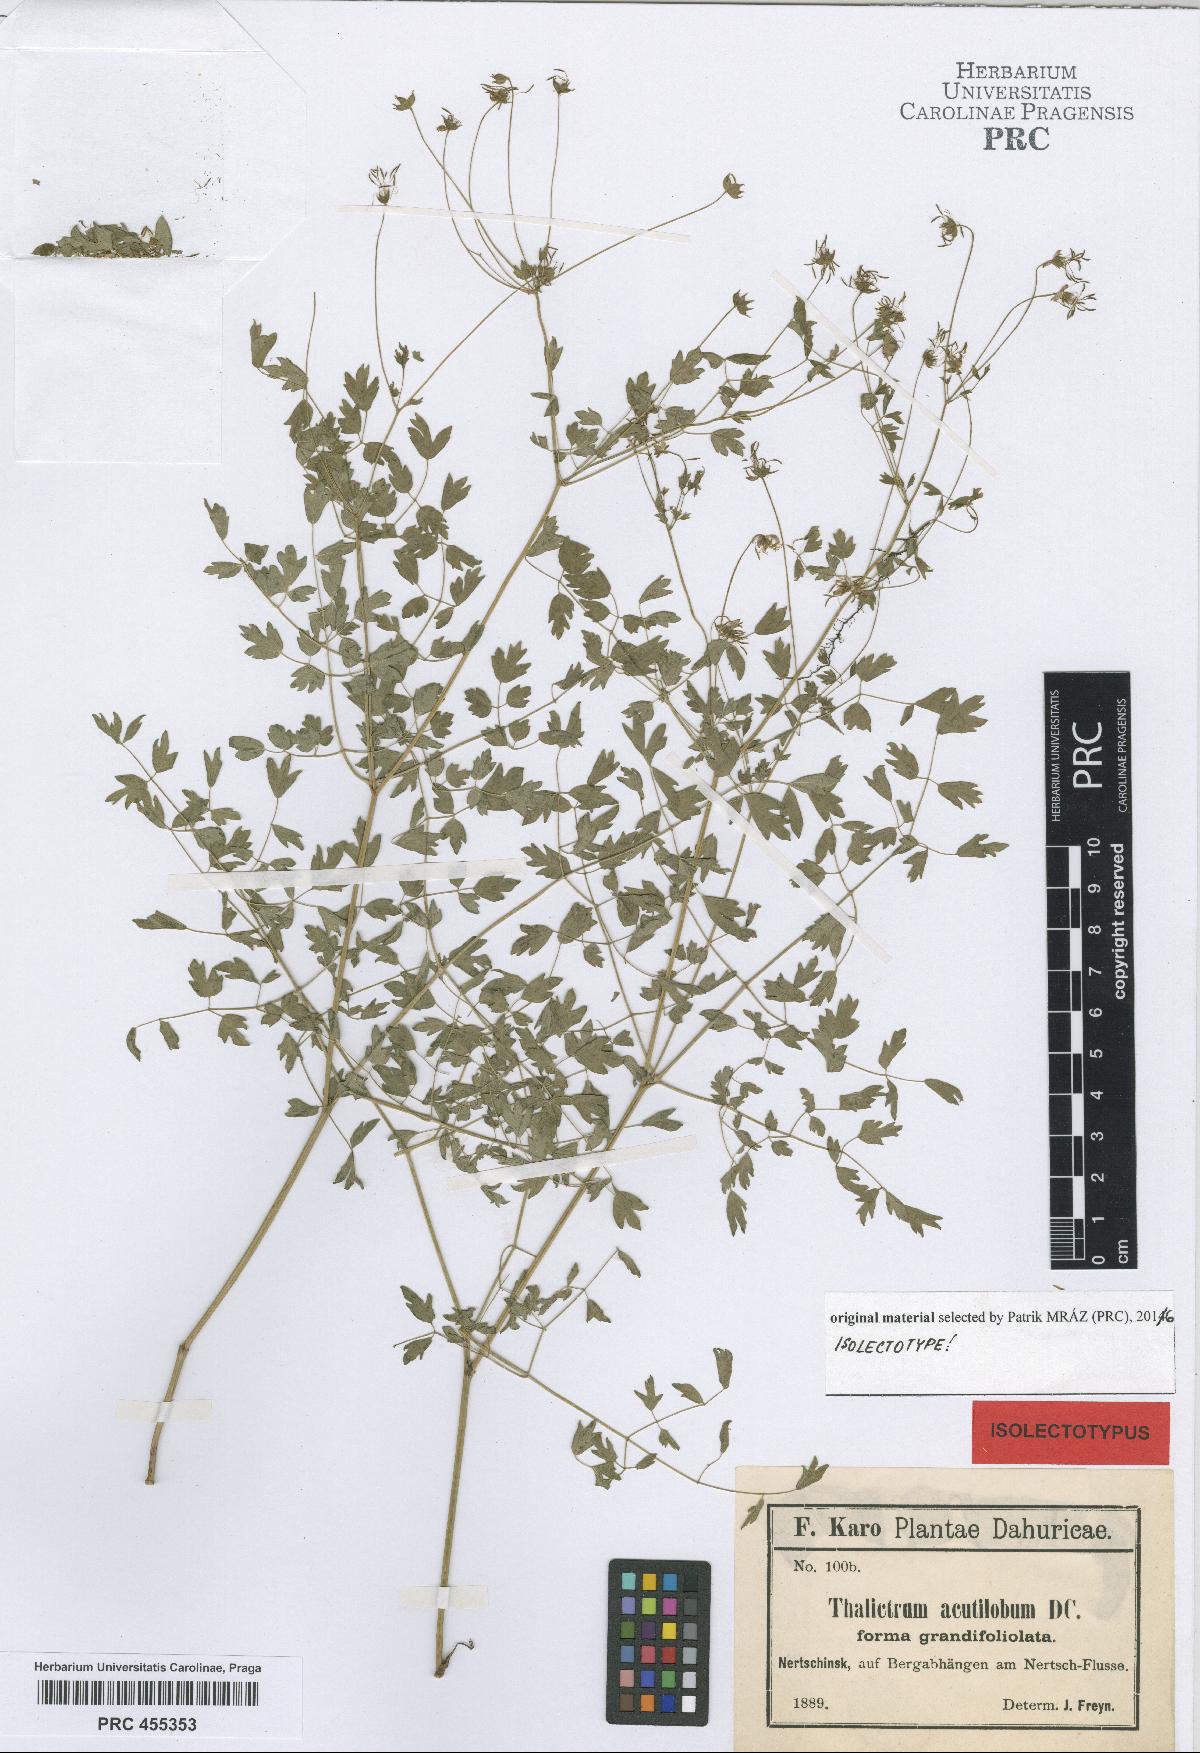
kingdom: Plantae
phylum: Tracheophyta
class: Magnoliopsida
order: Ranunculales
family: Ranunculaceae
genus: Thalictrum
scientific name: Thalictrum
